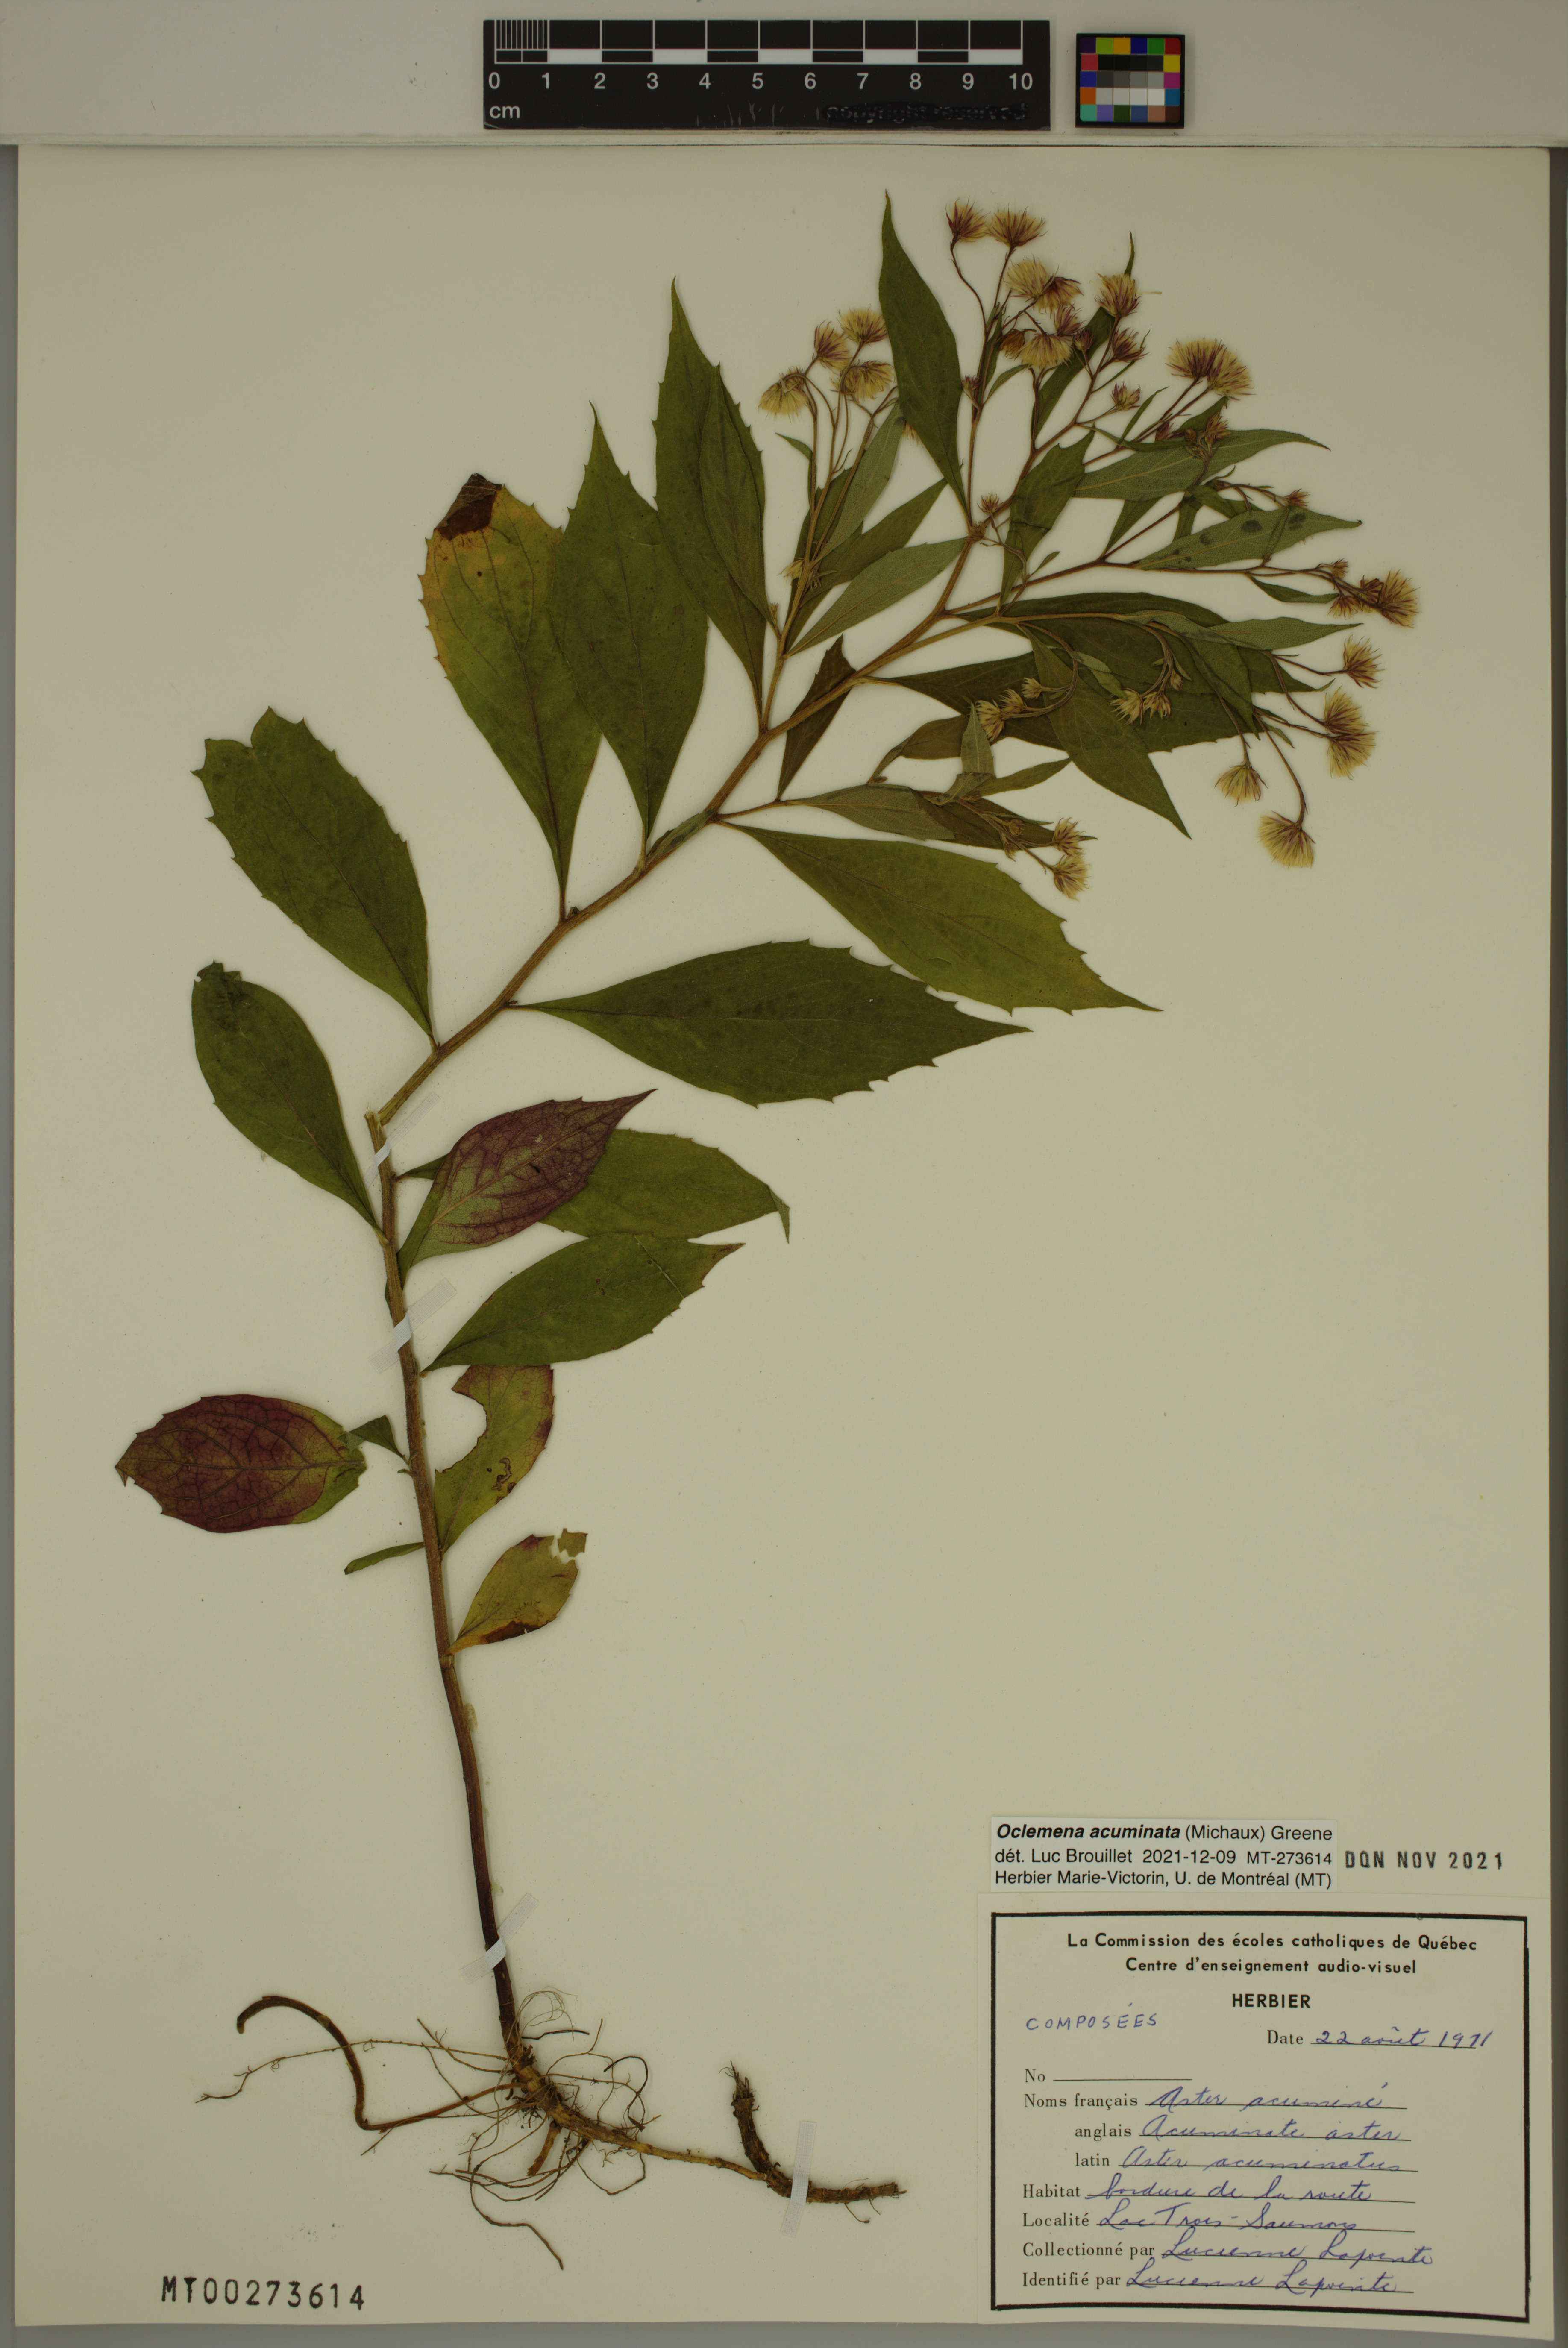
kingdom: Plantae
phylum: Tracheophyta
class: Magnoliopsida
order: Asterales
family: Asteraceae
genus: Oclemena
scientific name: Oclemena acuminata
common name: Mountain aster
